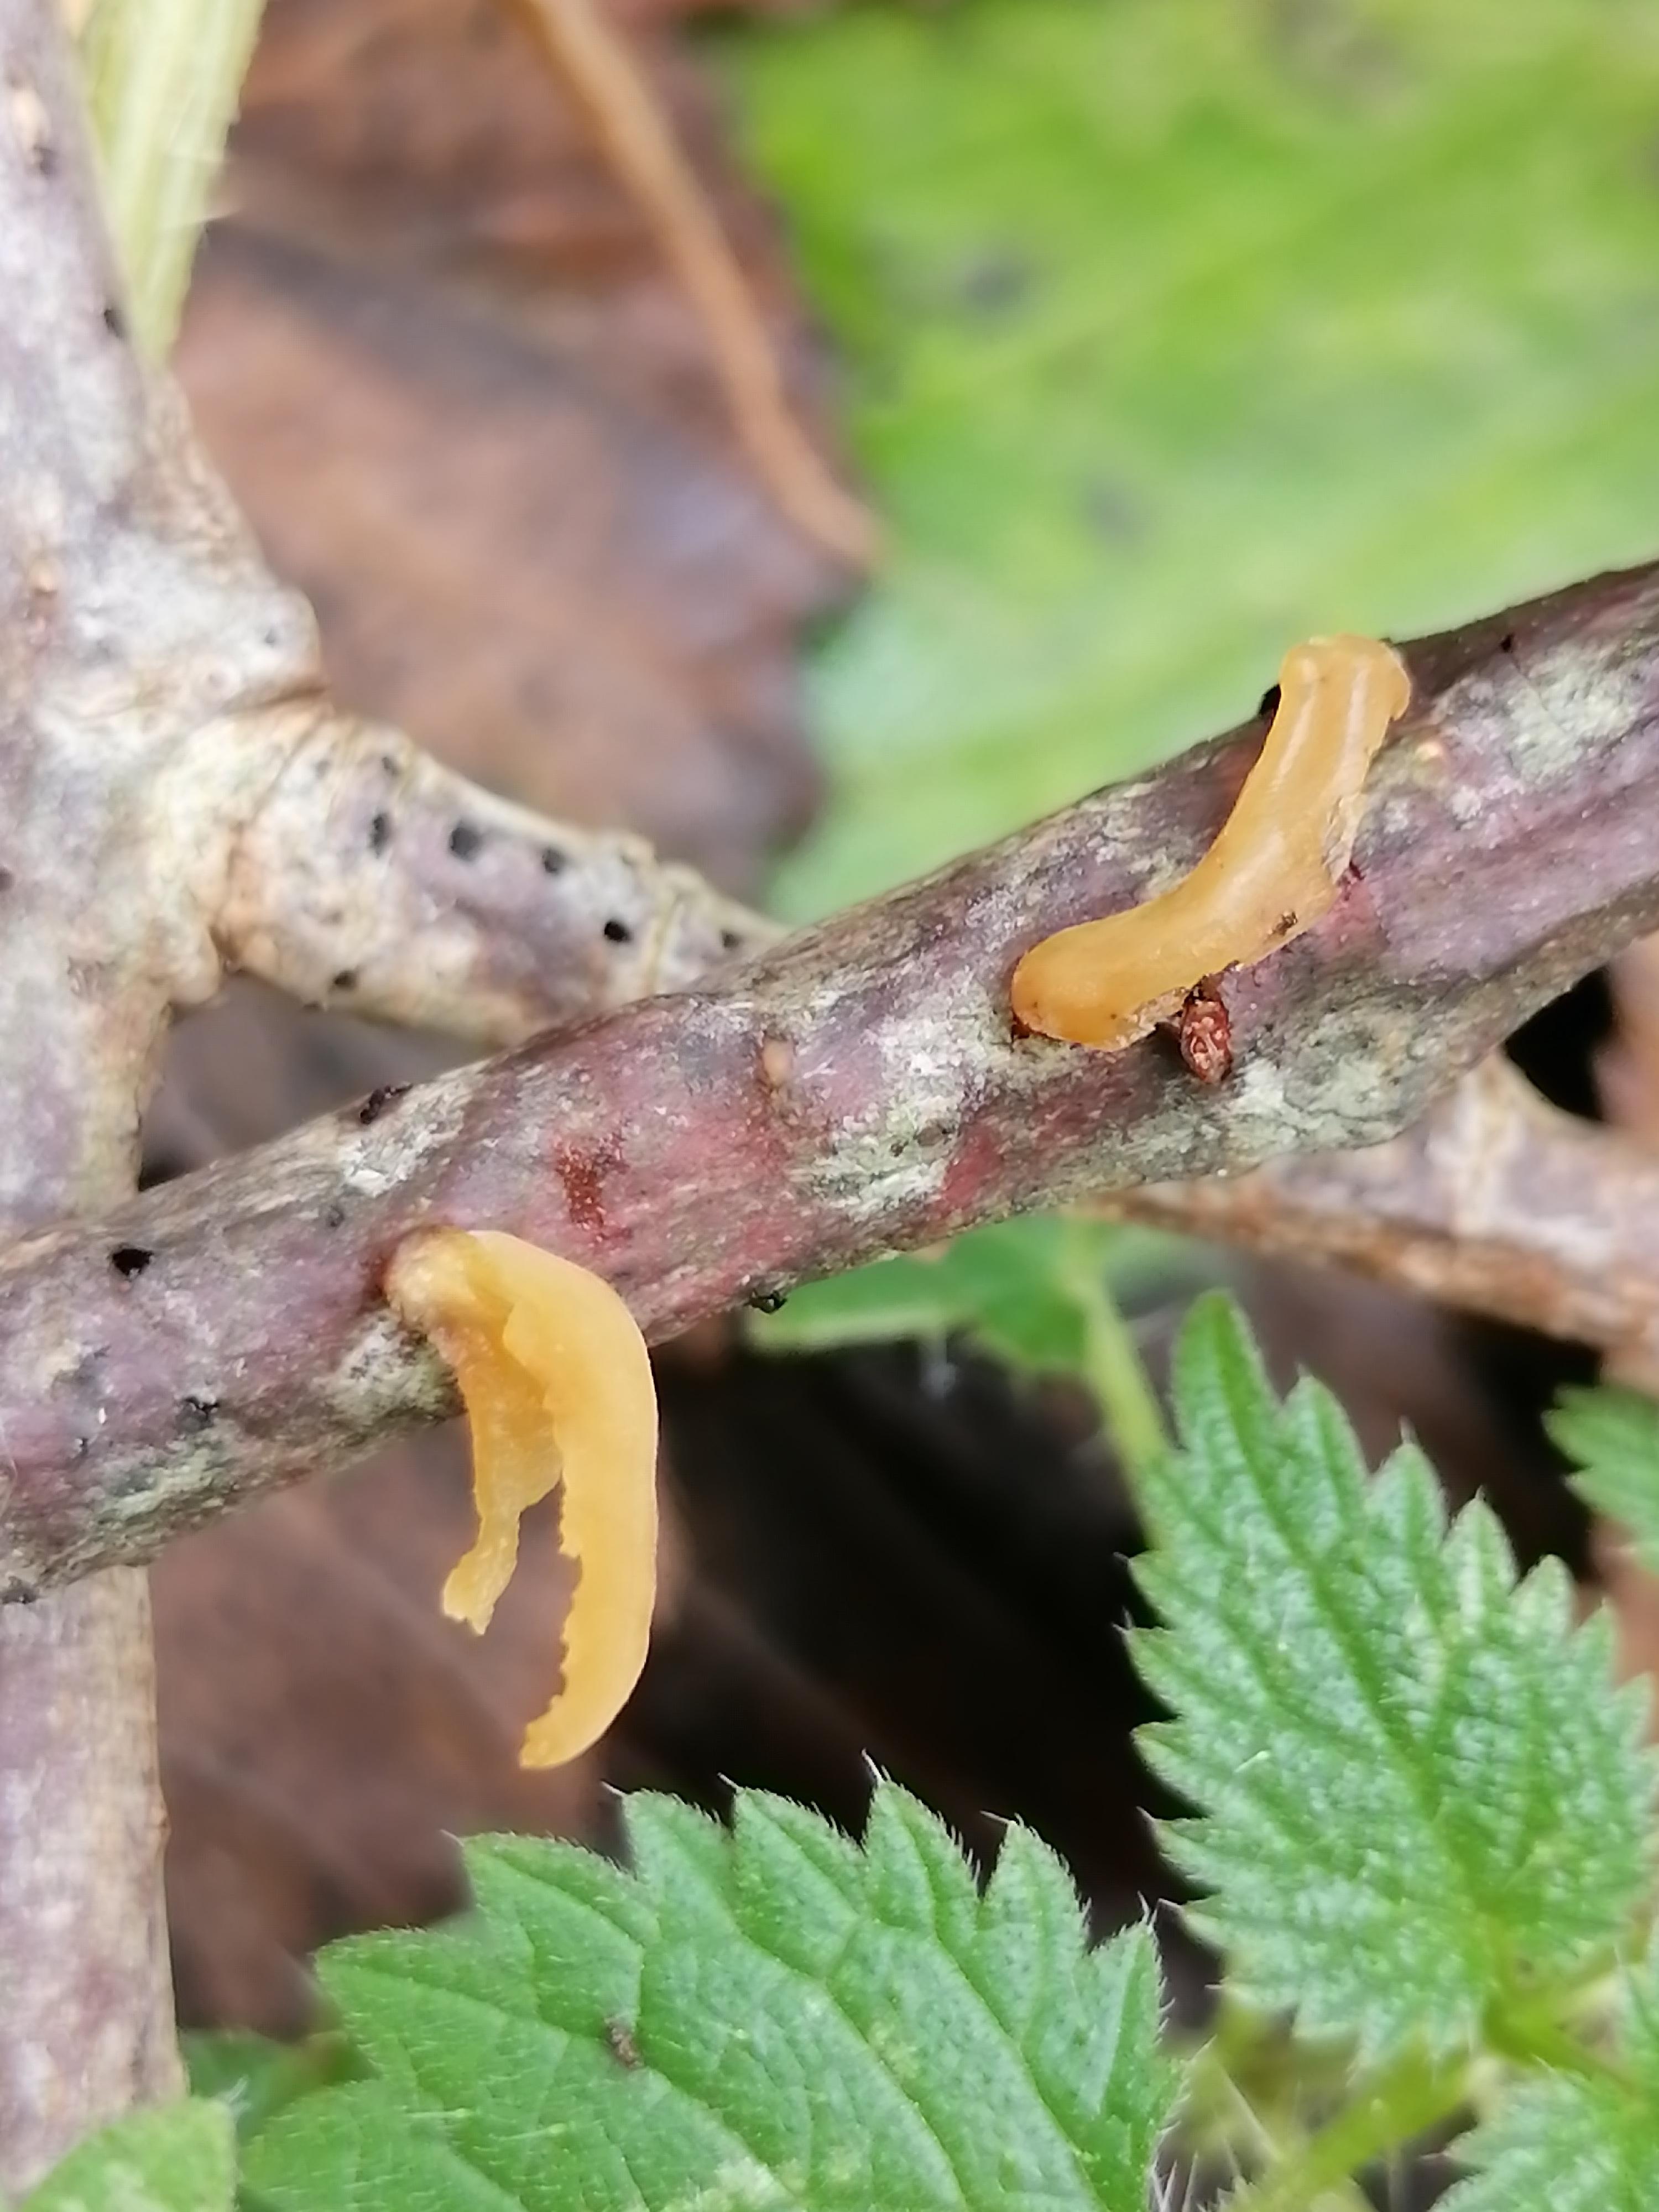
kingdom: Fungi
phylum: Basidiomycota
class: Agaricomycetes
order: Agaricales
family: Typhulaceae
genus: Typhula
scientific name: Typhula contorta
